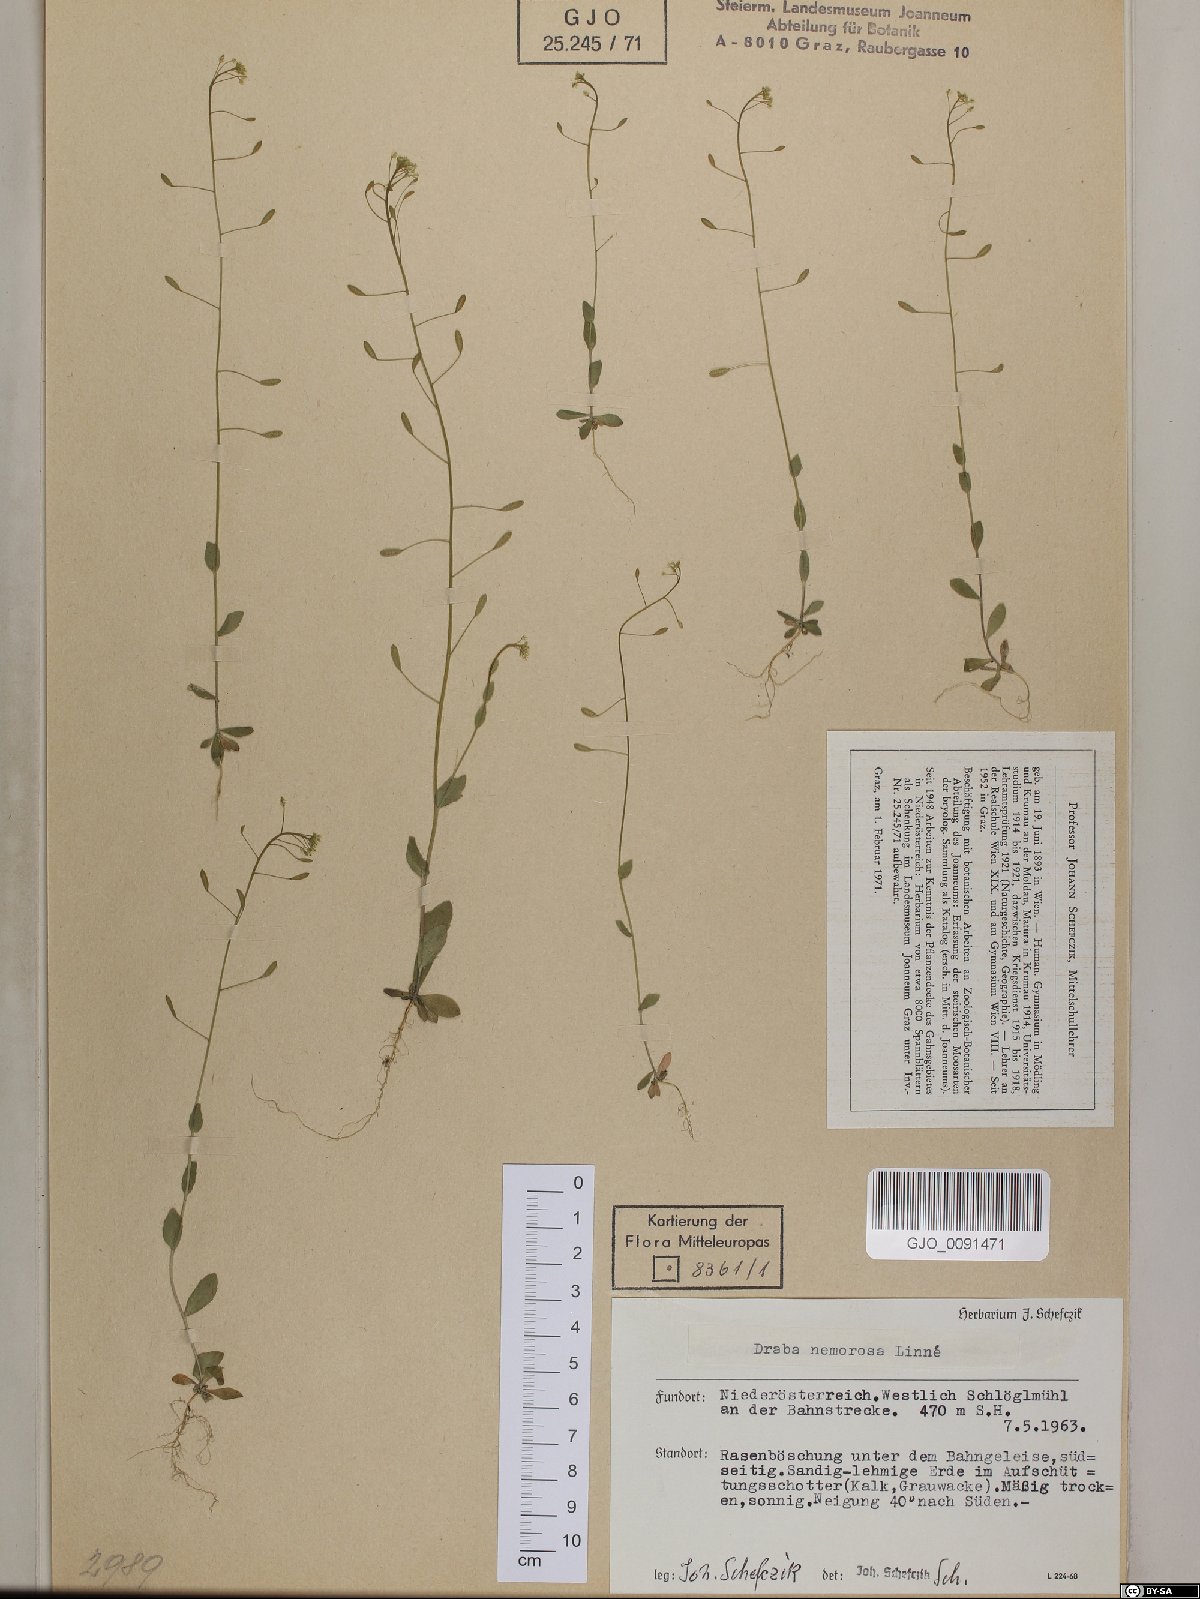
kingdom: Plantae
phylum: Tracheophyta
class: Magnoliopsida
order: Brassicales
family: Brassicaceae
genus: Draba
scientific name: Draba nemorosa
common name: Wood whitlow-grass
